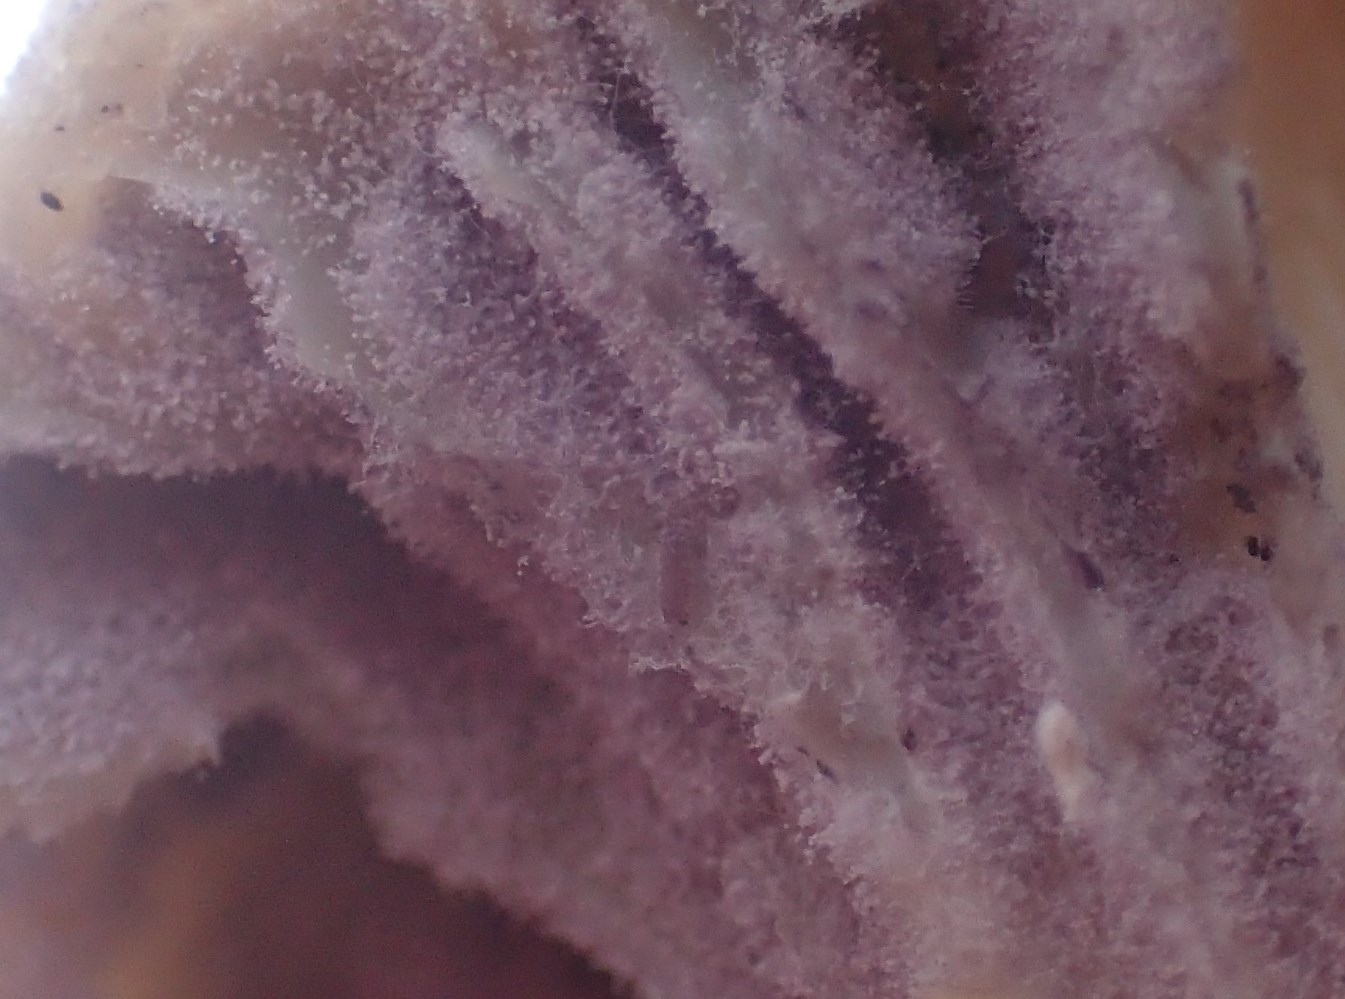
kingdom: Fungi
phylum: Ascomycota
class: Sordariomycetes
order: Hypocreales
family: Clavicipitaceae
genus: Marquandomyces
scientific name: Marquandomyces marquandii
